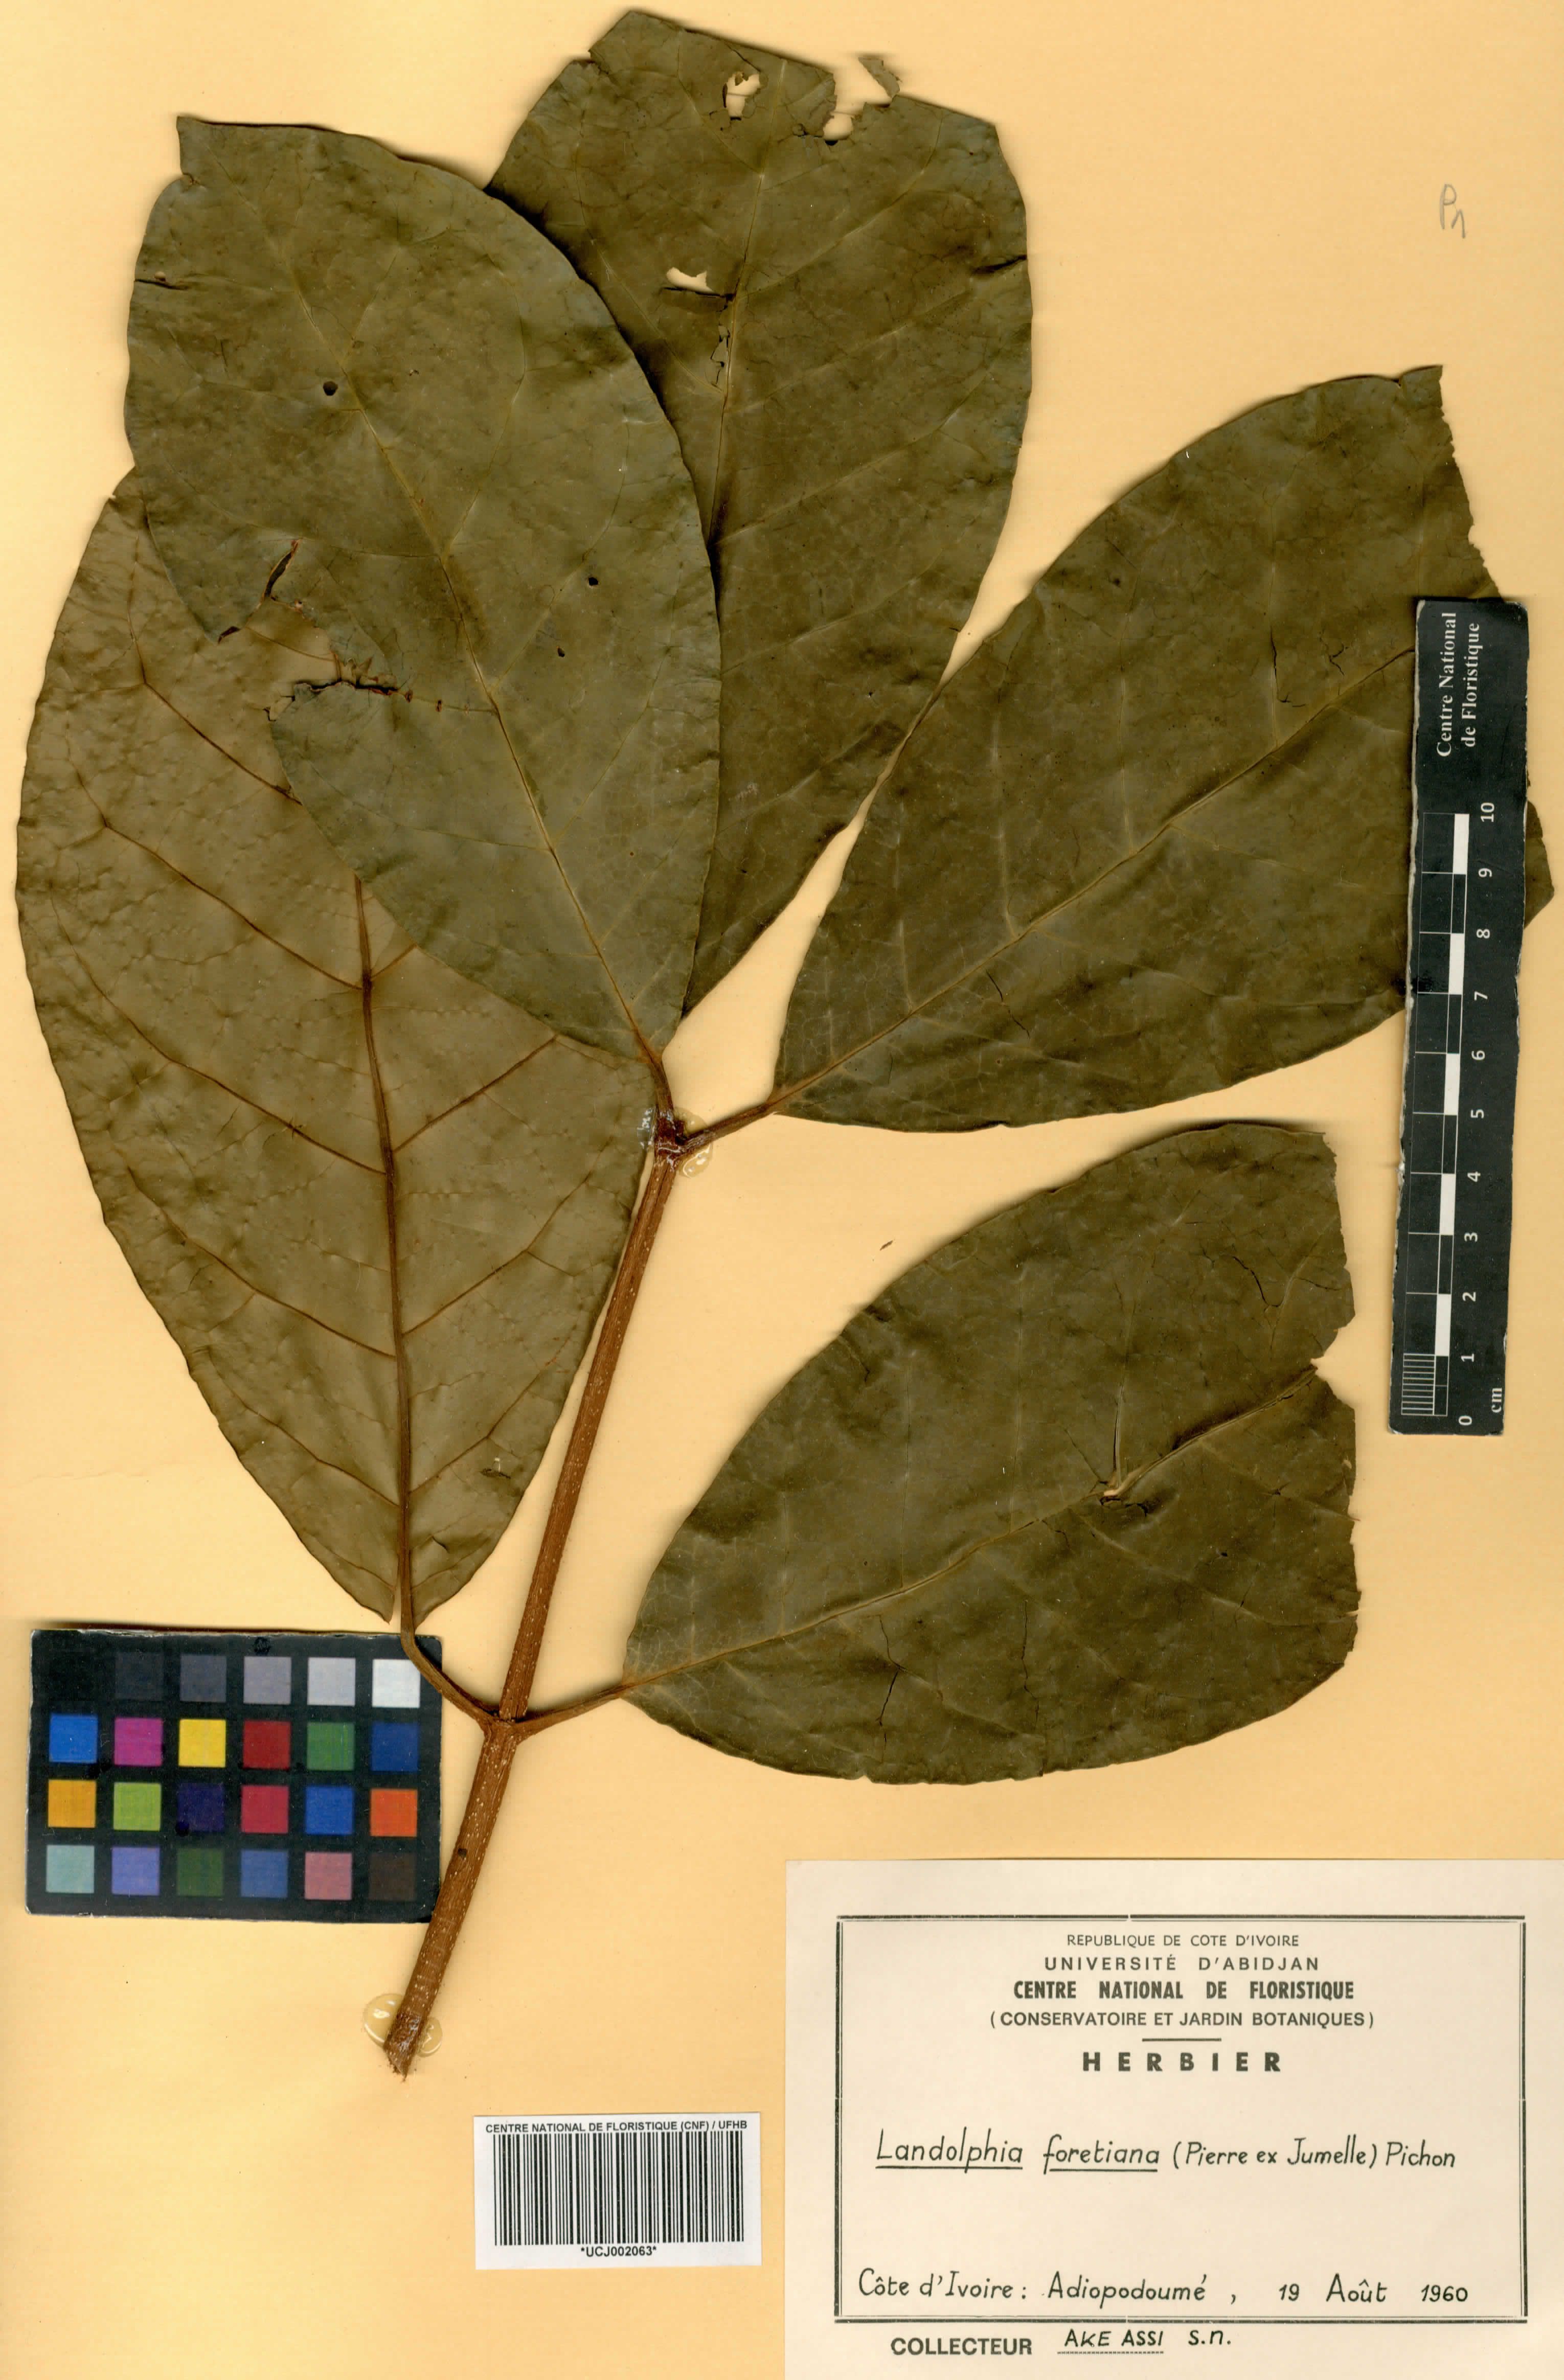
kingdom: Plantae
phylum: Tracheophyta
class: Magnoliopsida
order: Gentianales
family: Apocynaceae
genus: Landolphia
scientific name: Landolphia foretiana
